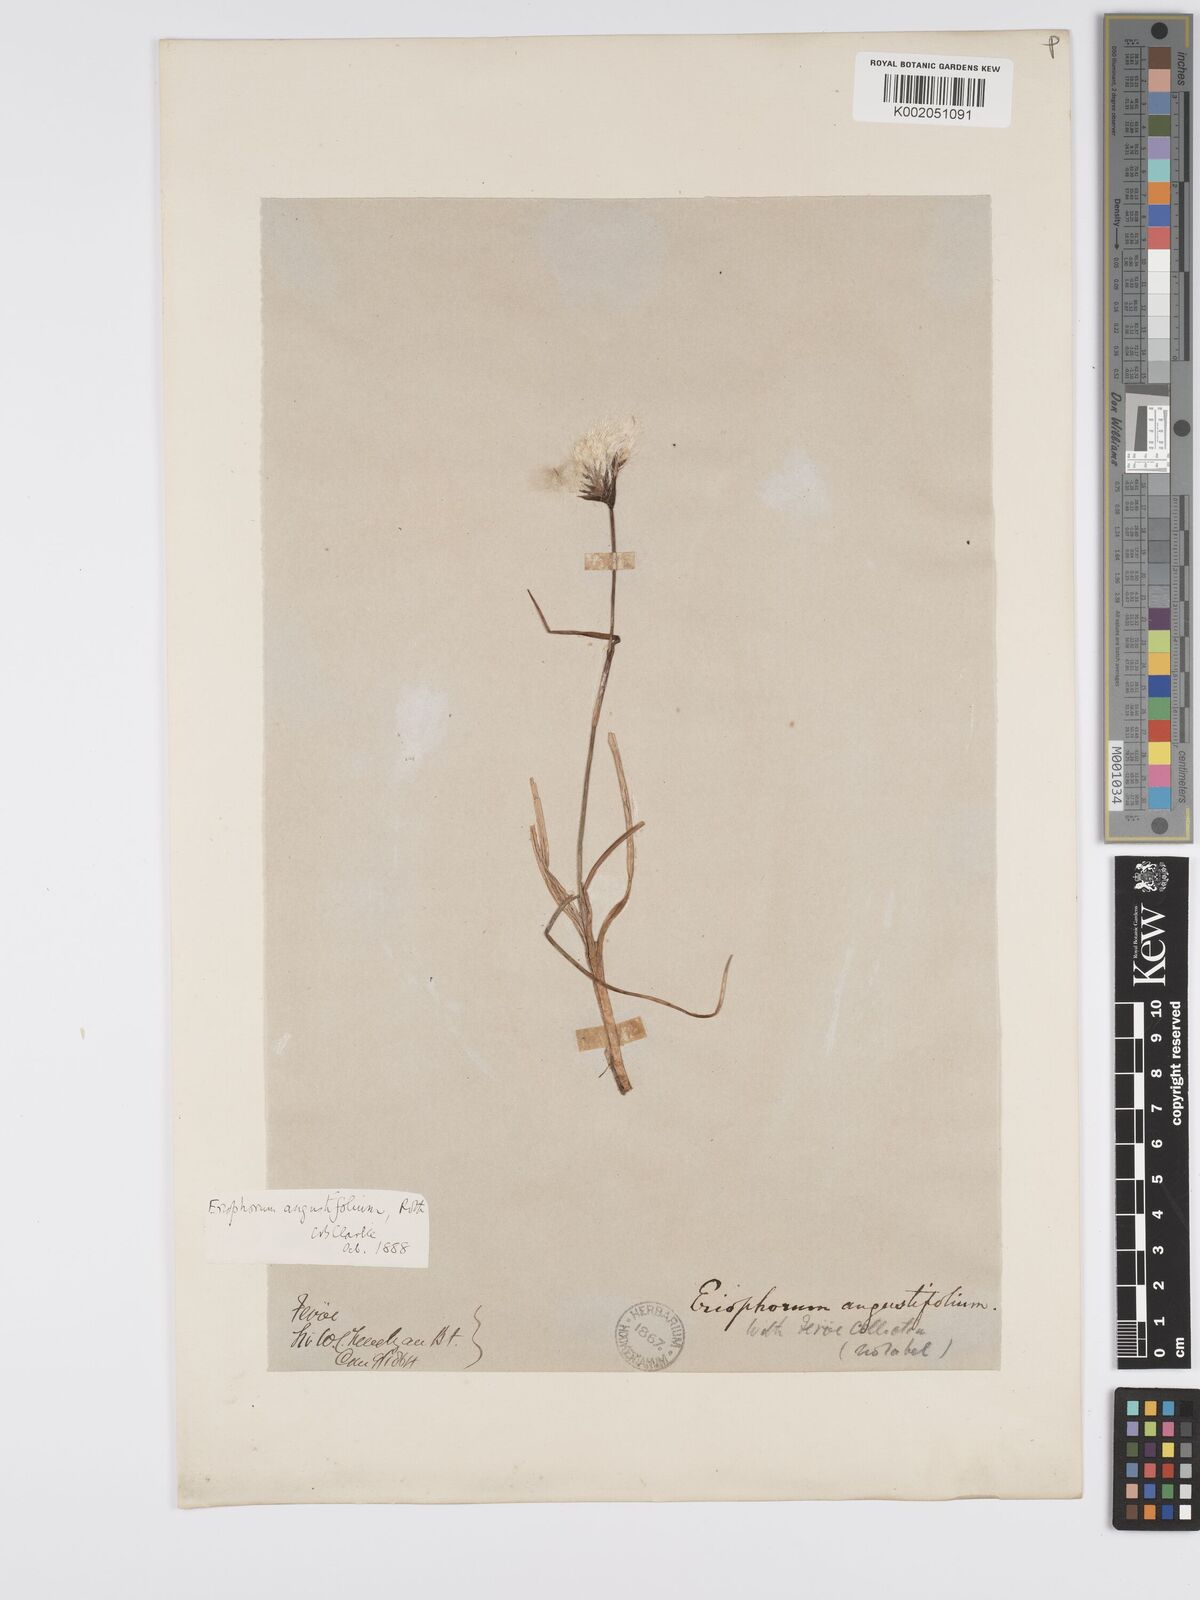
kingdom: Plantae
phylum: Tracheophyta
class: Liliopsida
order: Poales
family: Cyperaceae
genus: Eriophorum
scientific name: Eriophorum angustifolium
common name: Common cottongrass
